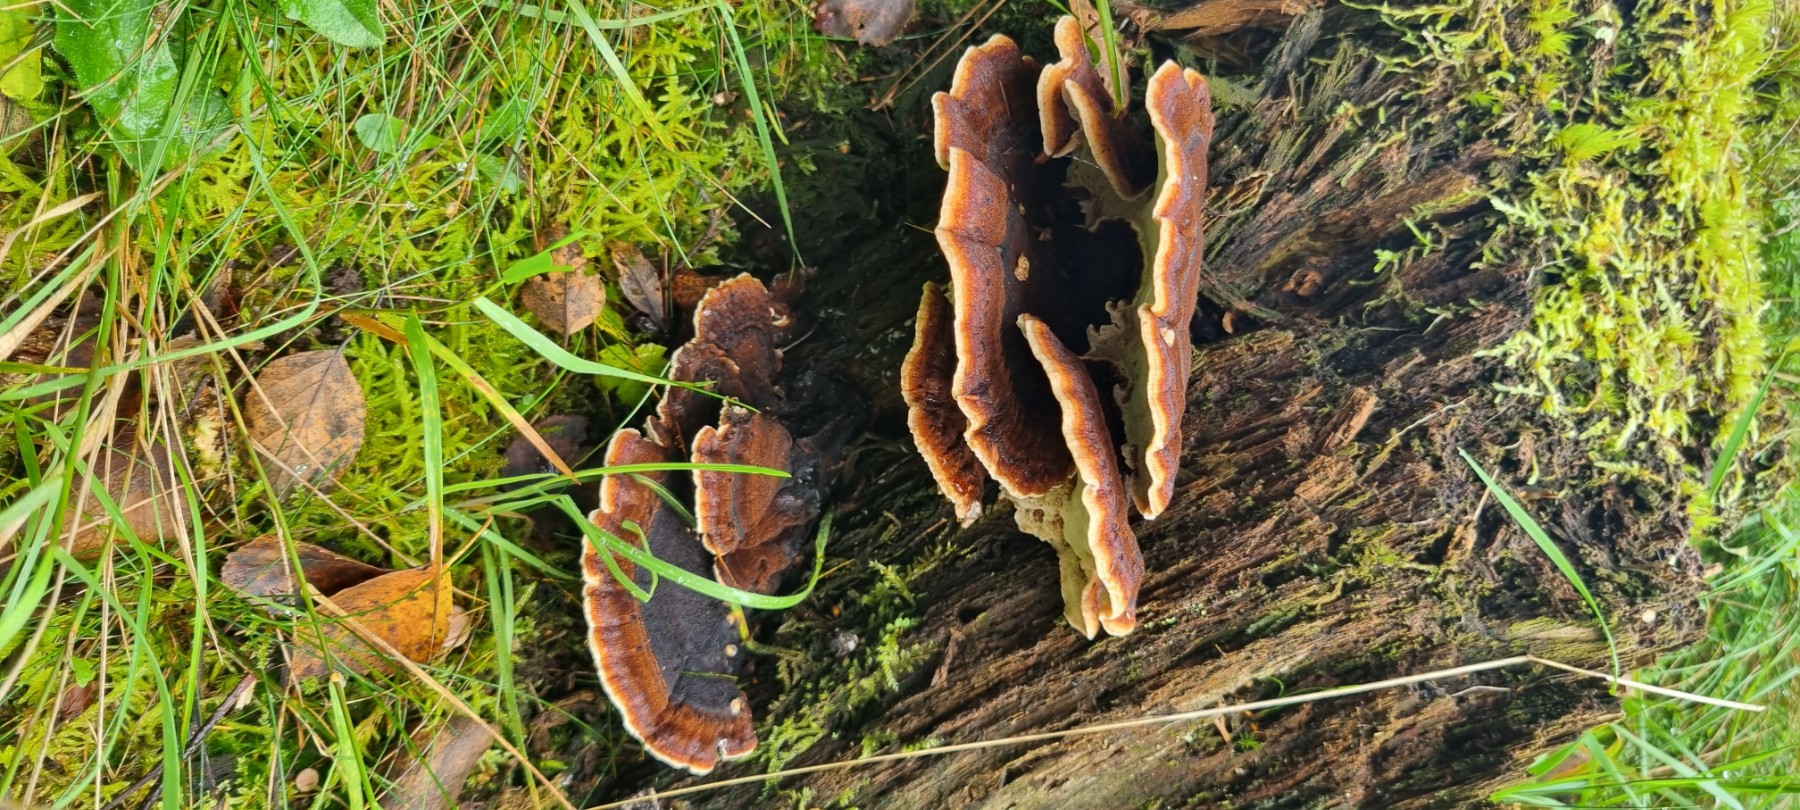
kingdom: Fungi
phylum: Basidiomycota
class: Agaricomycetes
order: Polyporales
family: Ischnodermataceae
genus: Ischnoderma
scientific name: Ischnoderma benzoinum
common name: gran-tjæreporesvamp
